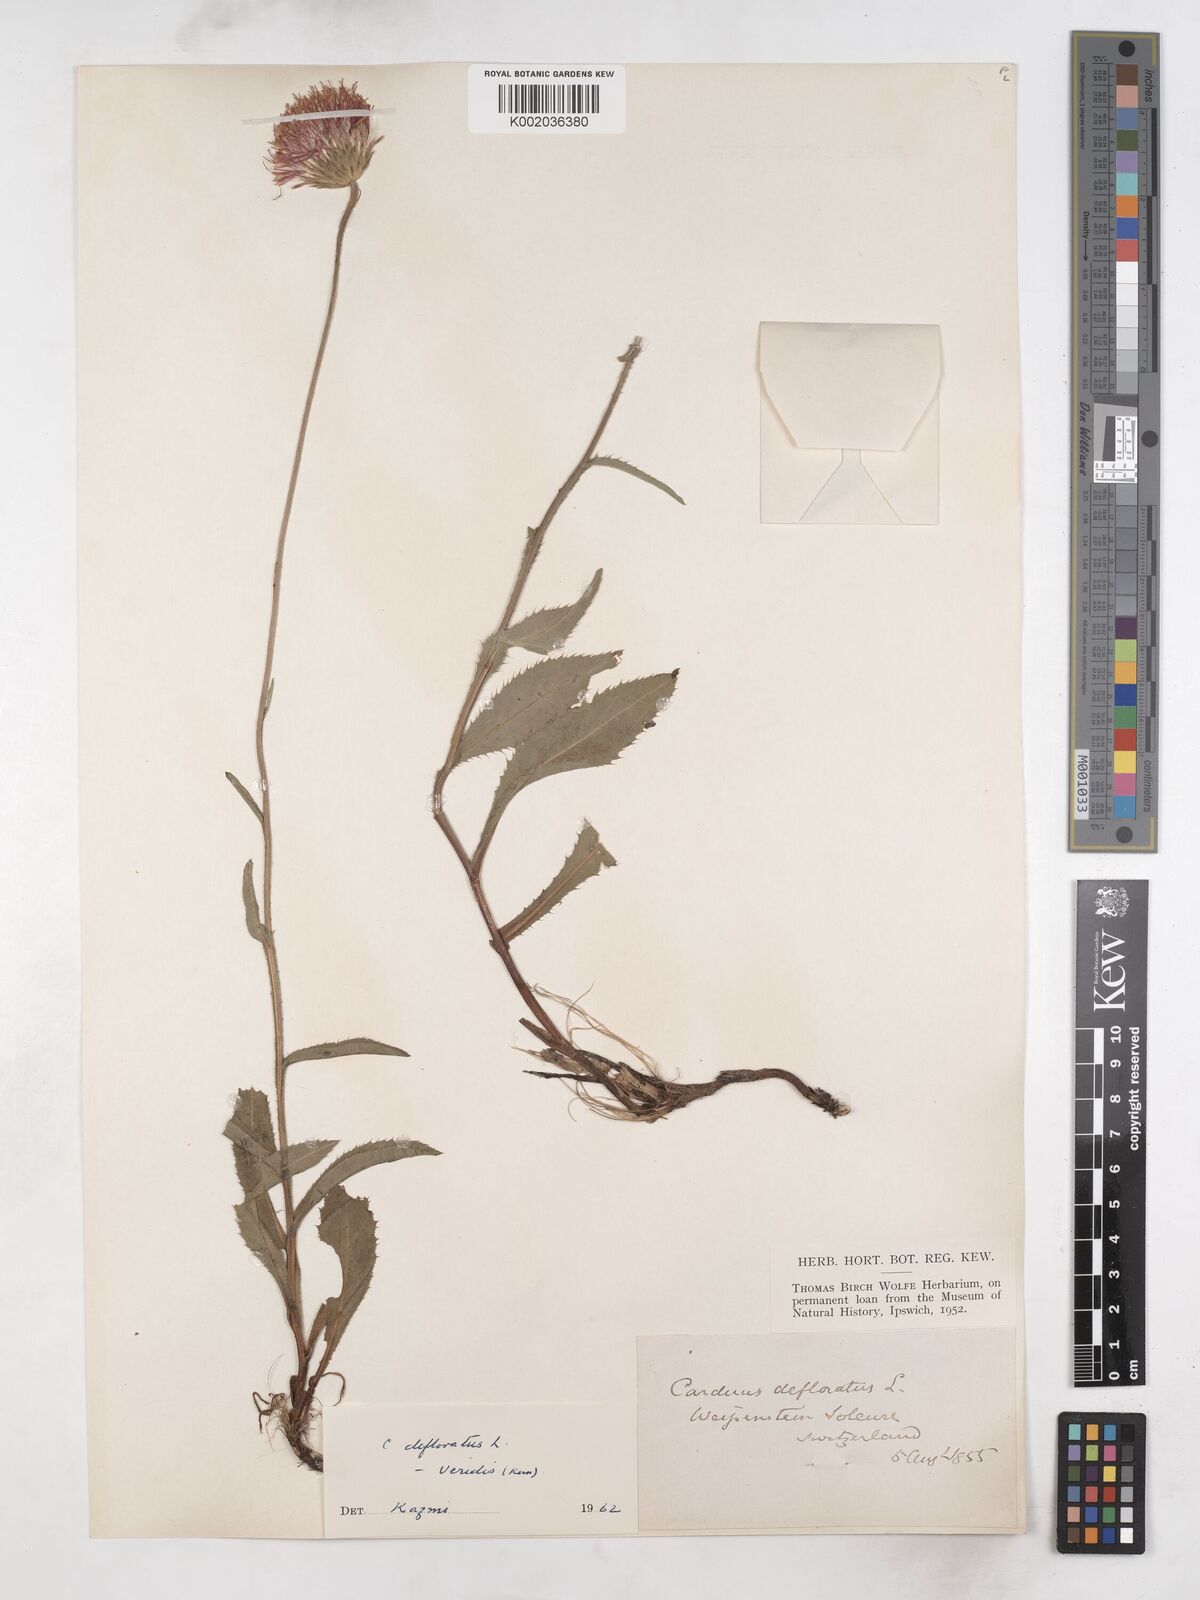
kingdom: Plantae
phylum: Tracheophyta
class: Magnoliopsida
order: Asterales
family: Asteraceae
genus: Carduus
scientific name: Carduus defloratus
